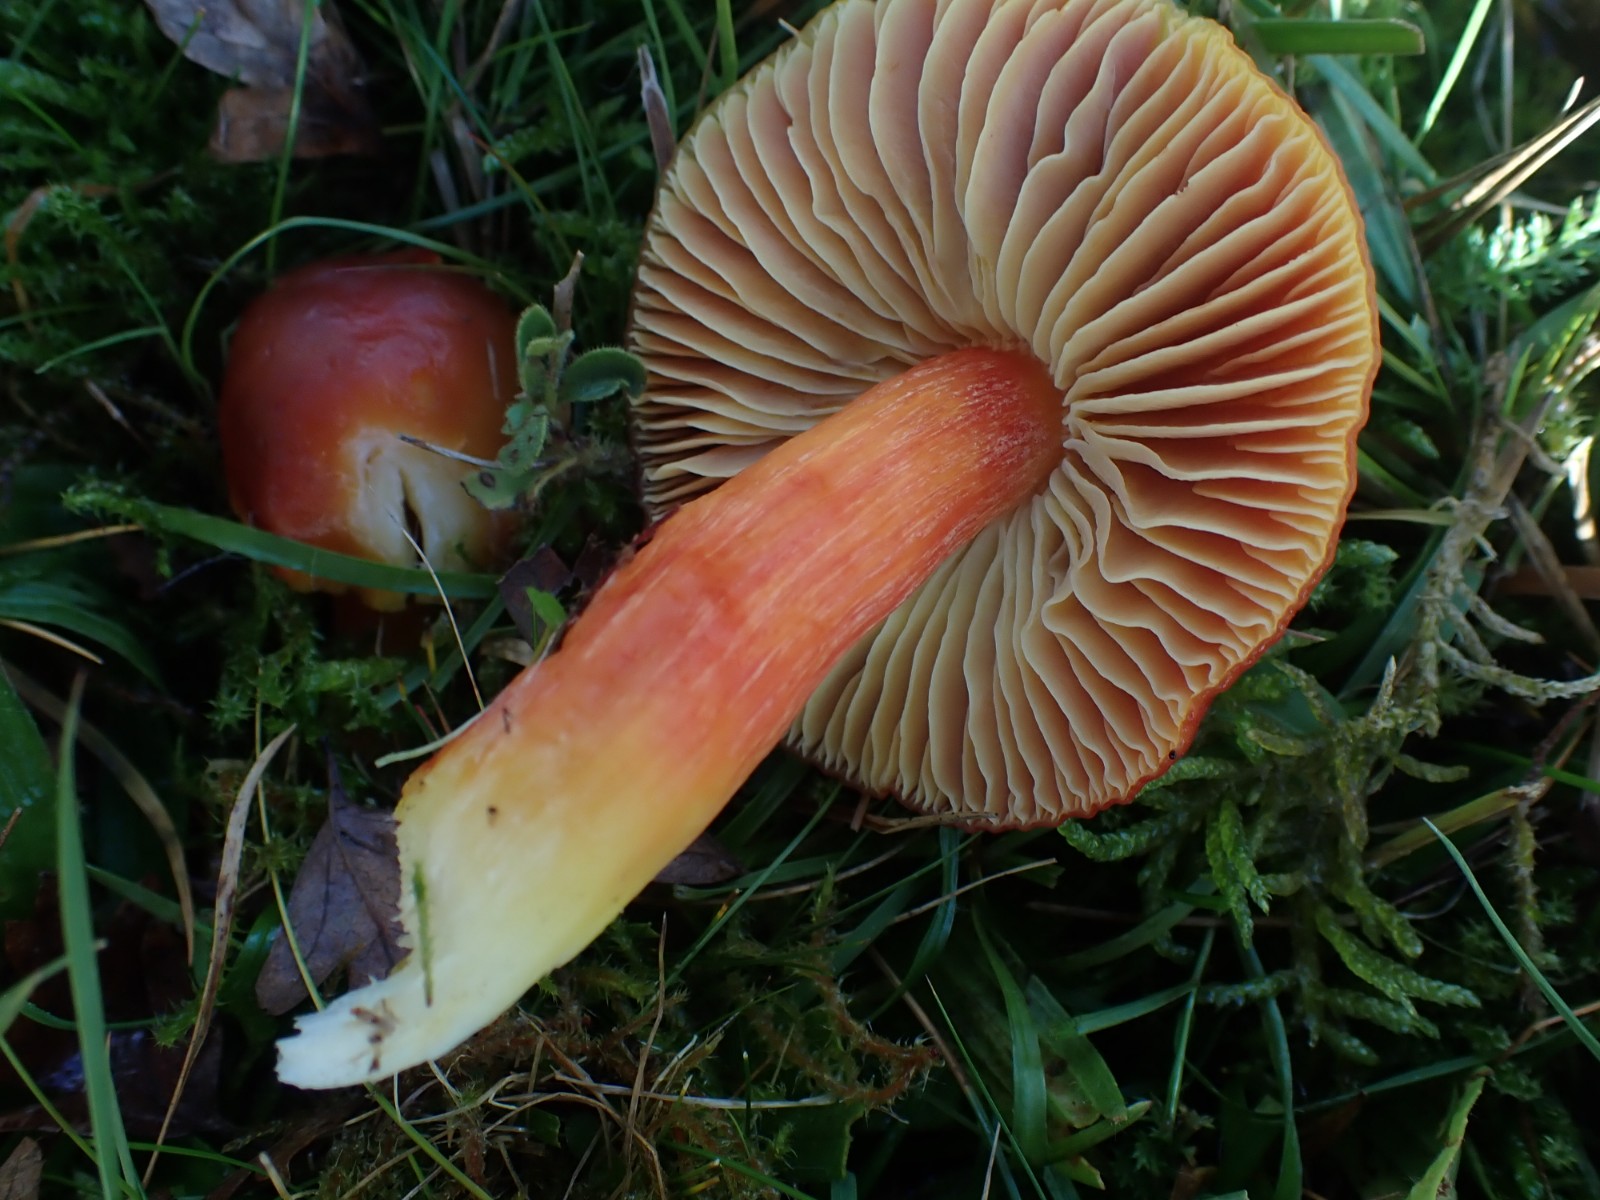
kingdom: Fungi
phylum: Basidiomycota
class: Agaricomycetes
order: Agaricales
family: Hygrophoraceae
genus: Hygrocybe
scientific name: Hygrocybe punicea
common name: skarlagen-vokshat
